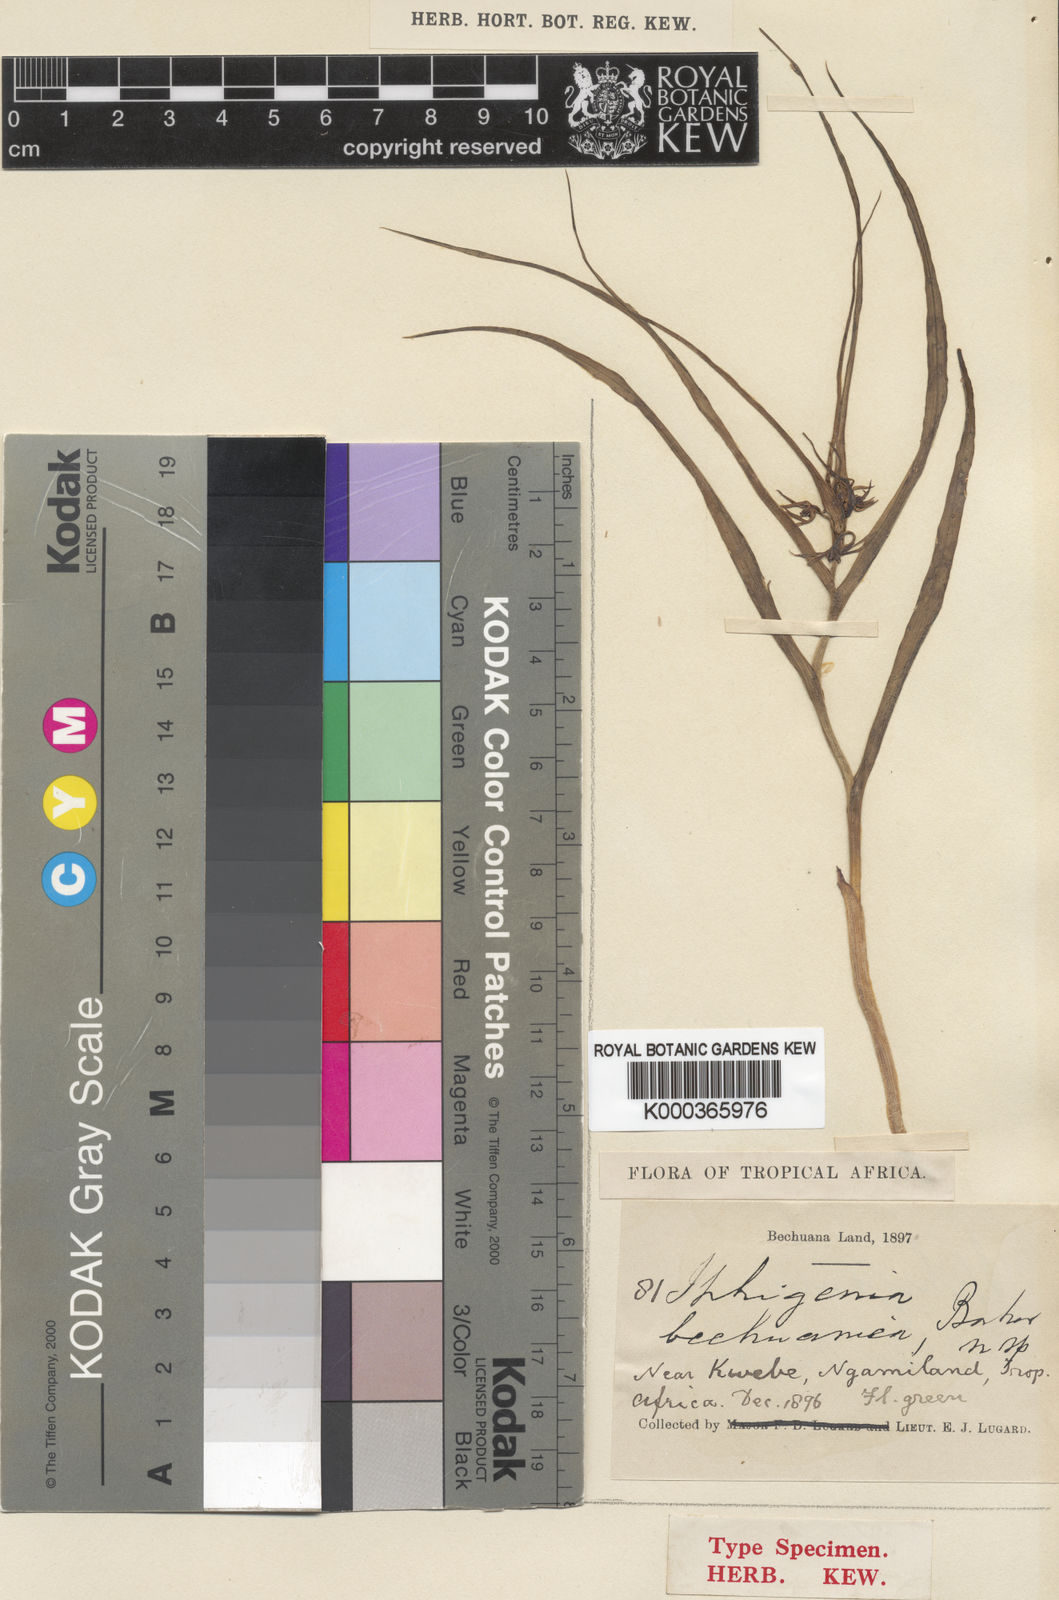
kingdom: Plantae
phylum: Tracheophyta
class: Liliopsida
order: Liliales
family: Colchicaceae
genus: Iphigenia
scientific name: Iphigenia oliveri
